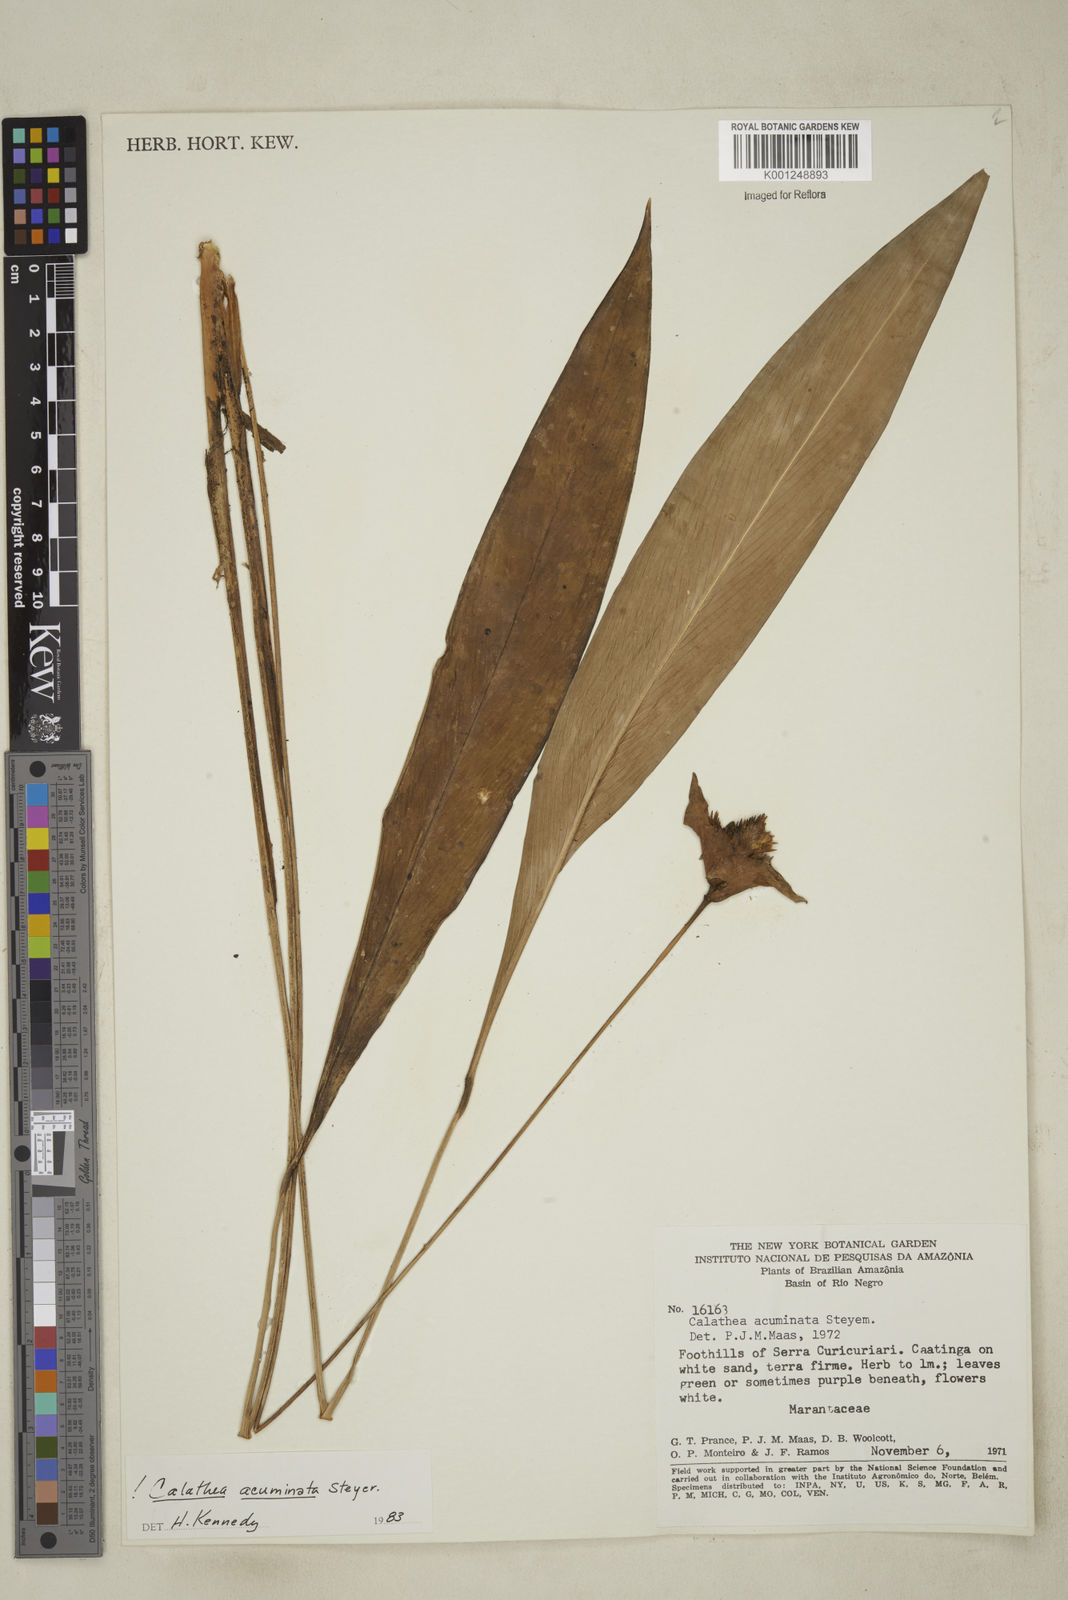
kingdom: Plantae
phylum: Tracheophyta
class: Liliopsida
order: Zingiberales
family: Marantaceae
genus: Goeppertia
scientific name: Goeppertia acuminata
